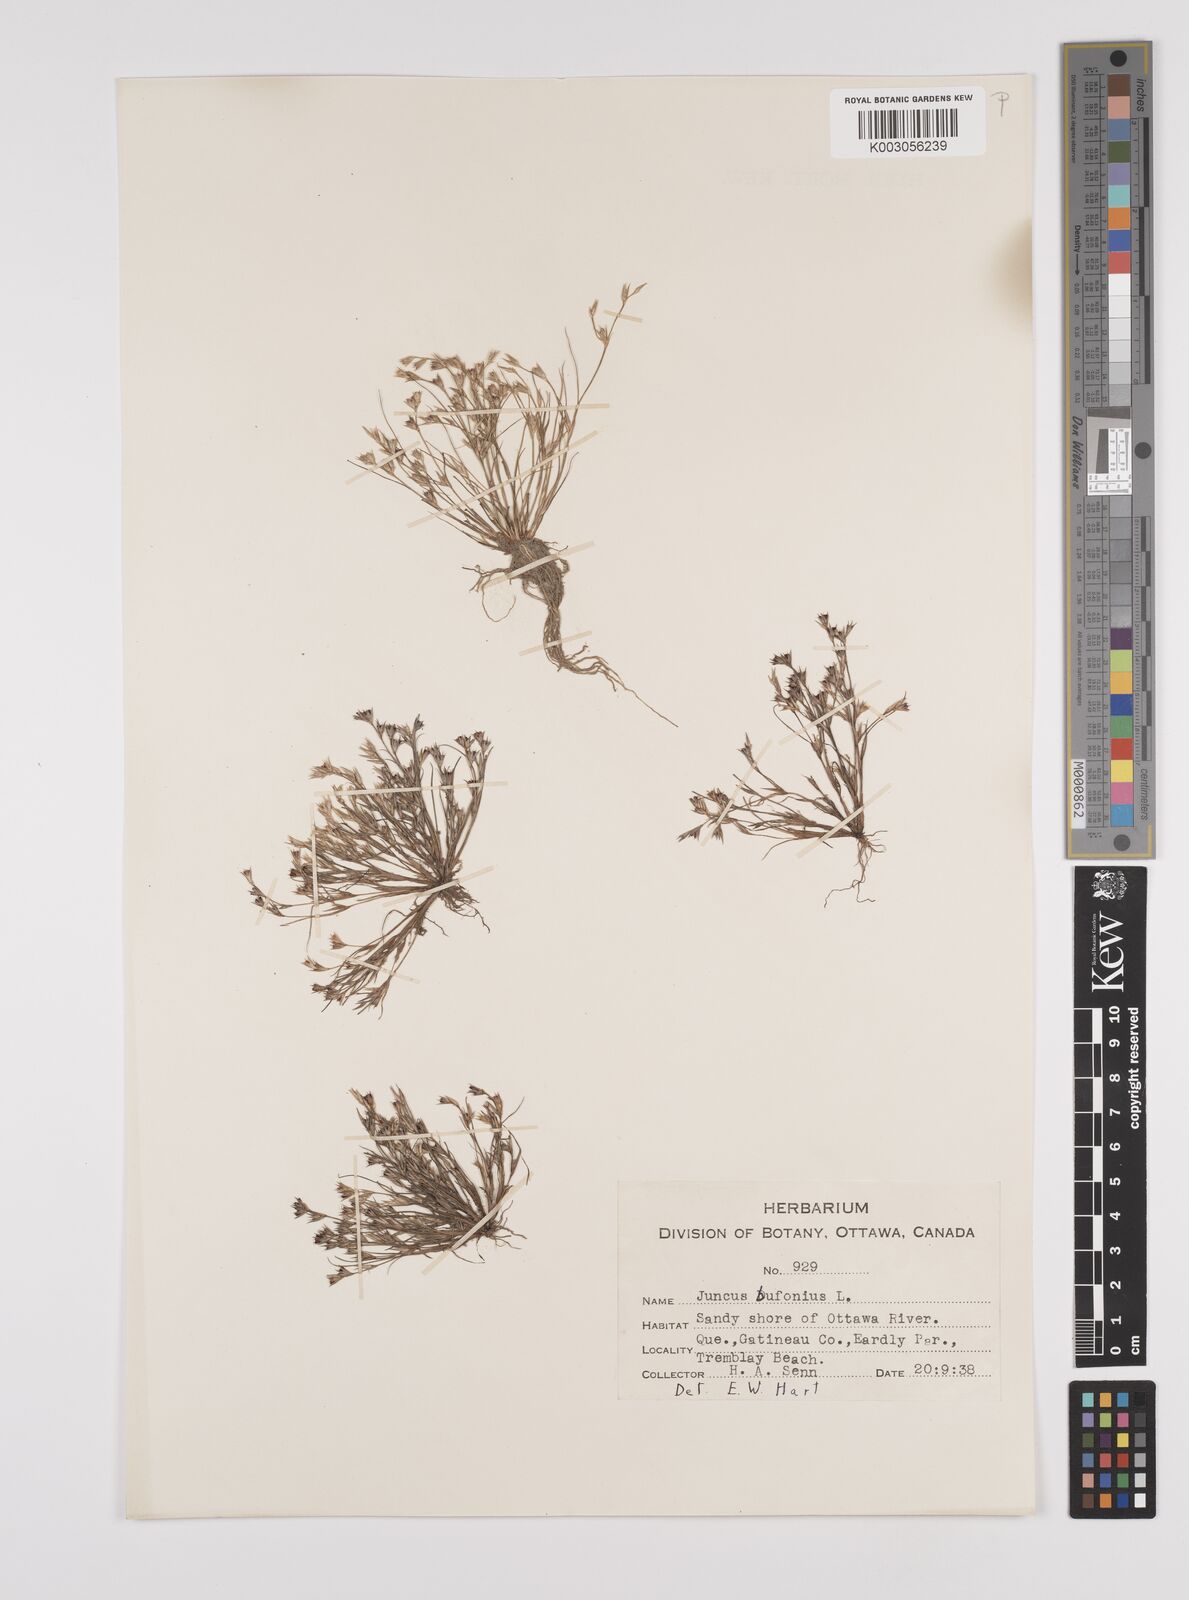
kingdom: Plantae
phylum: Tracheophyta
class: Liliopsida
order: Poales
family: Juncaceae
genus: Juncus
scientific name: Juncus bufonius
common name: Toad rush
